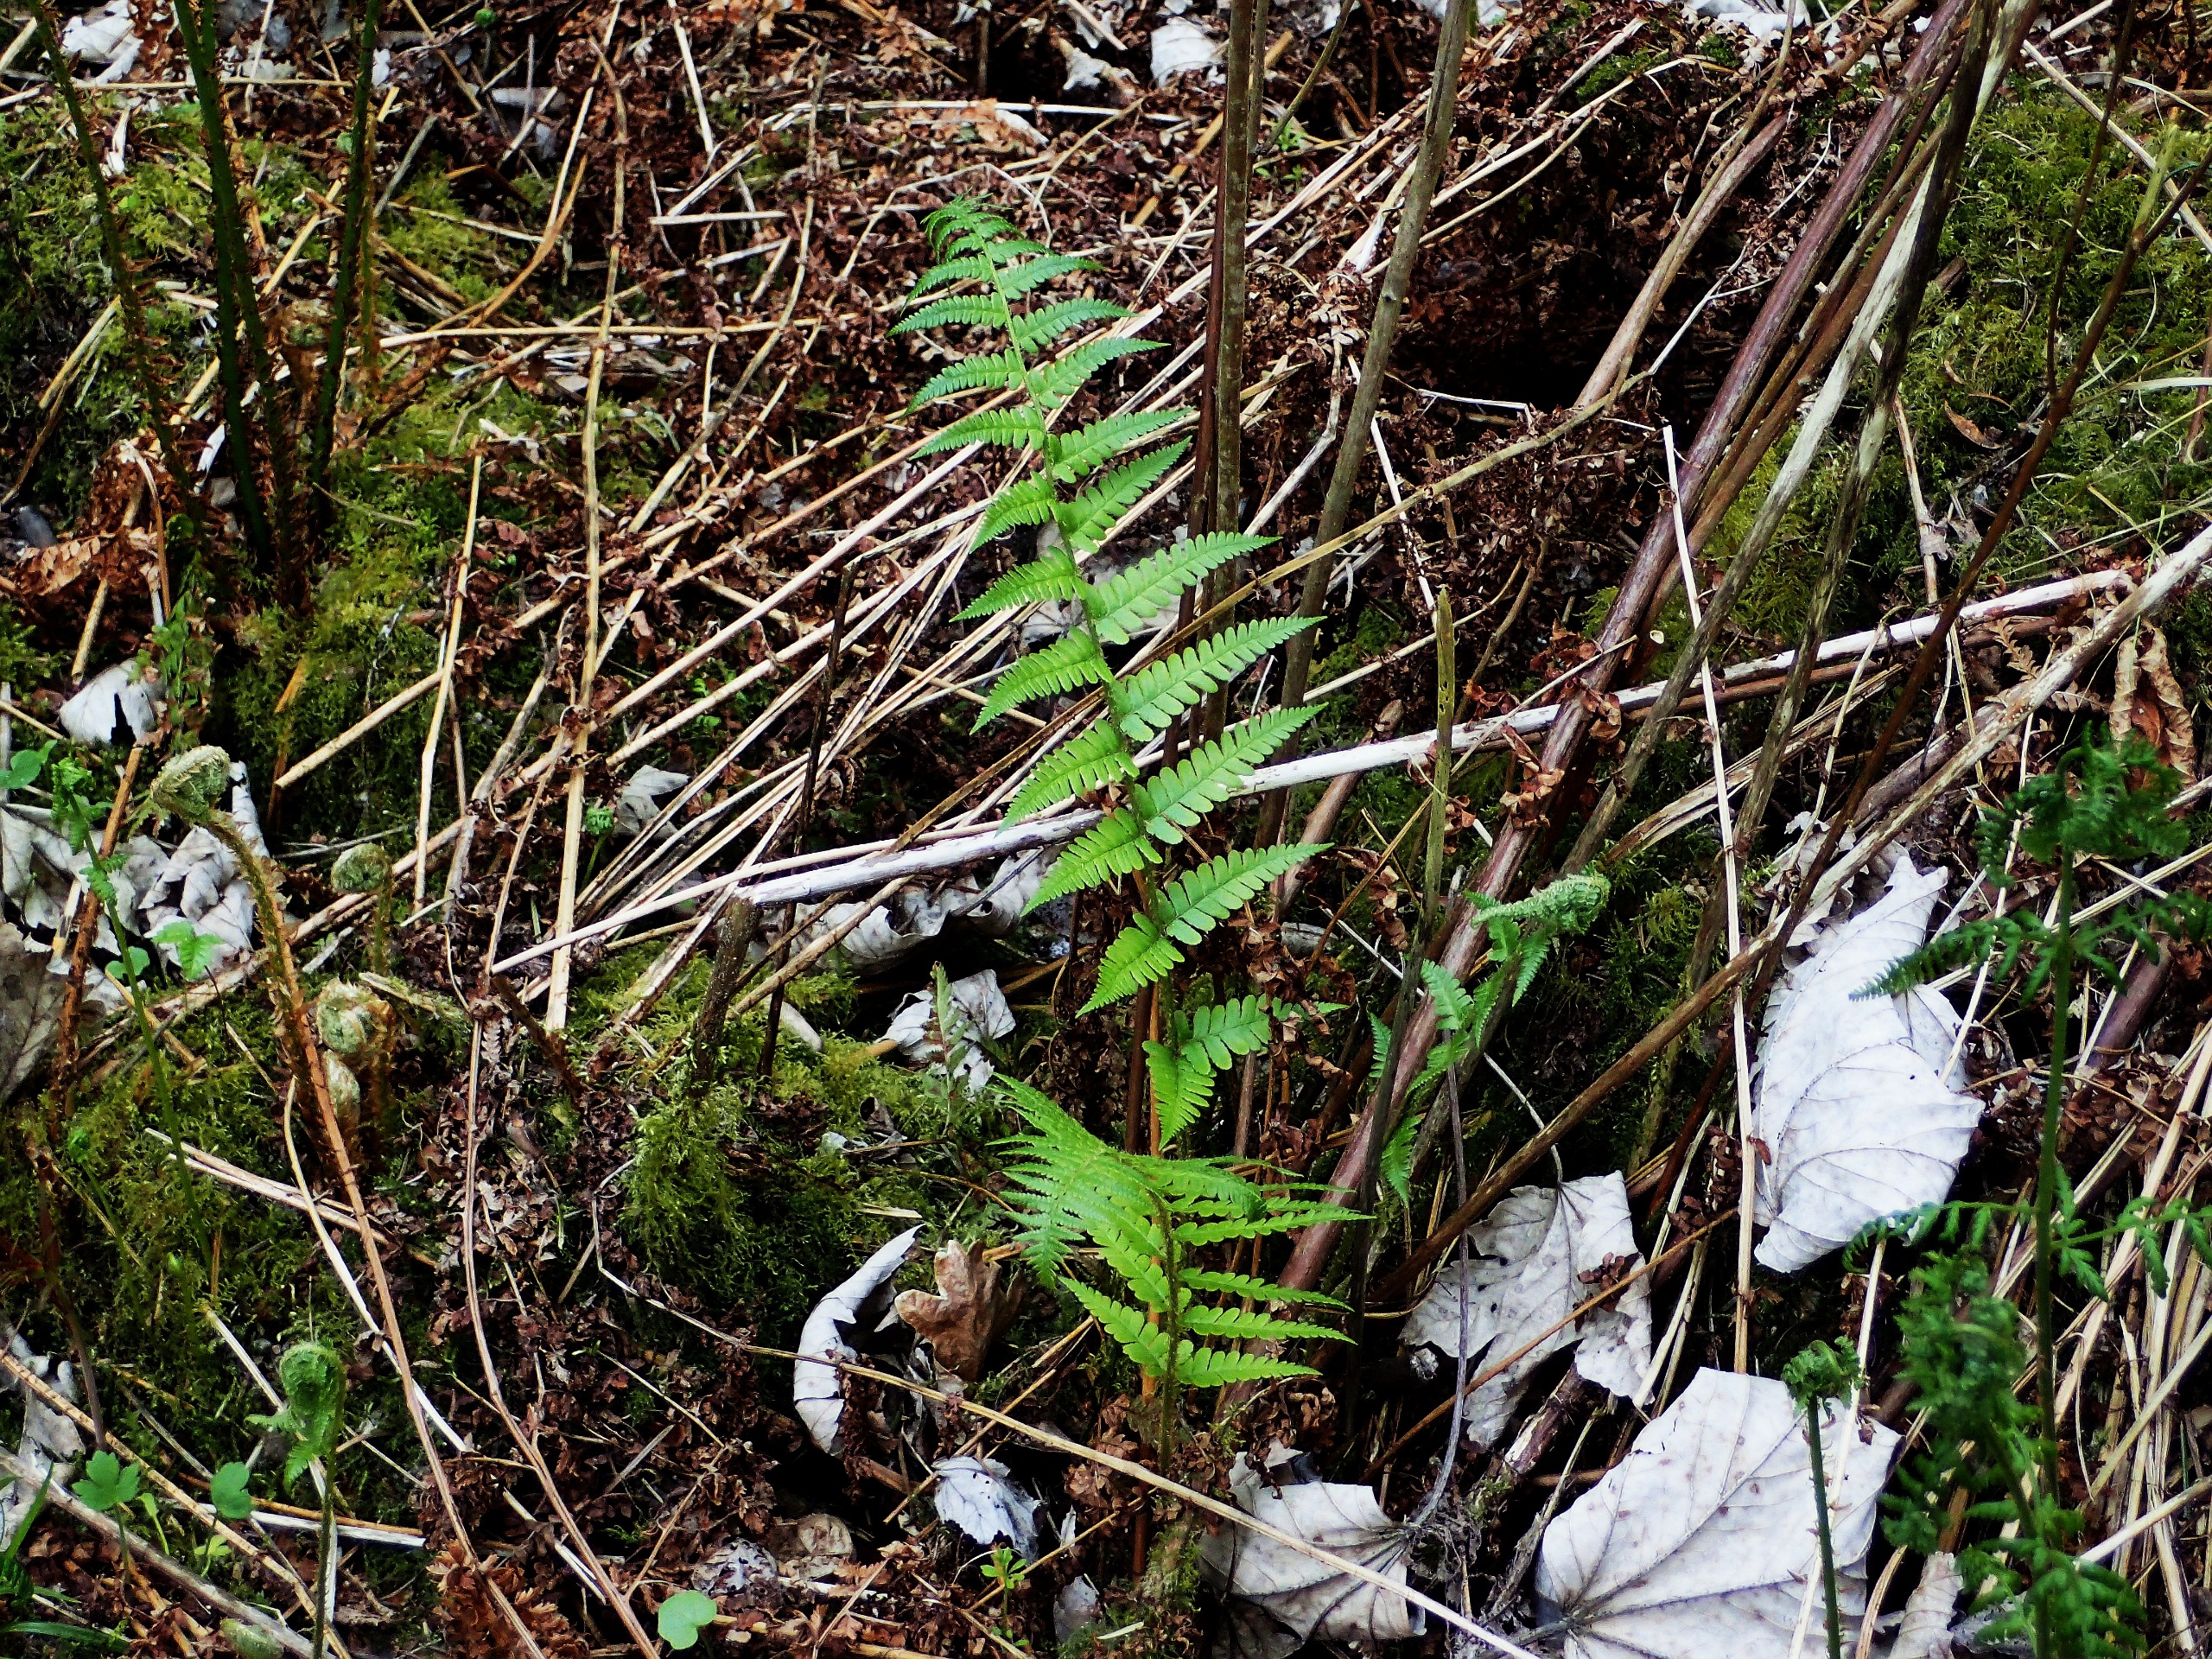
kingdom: Plantae
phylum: Tracheophyta
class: Polypodiopsida
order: Polypodiales
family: Dryopteridaceae
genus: Dryopteris
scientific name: Dryopteris filix-mas
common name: Almindelig mangeløv
